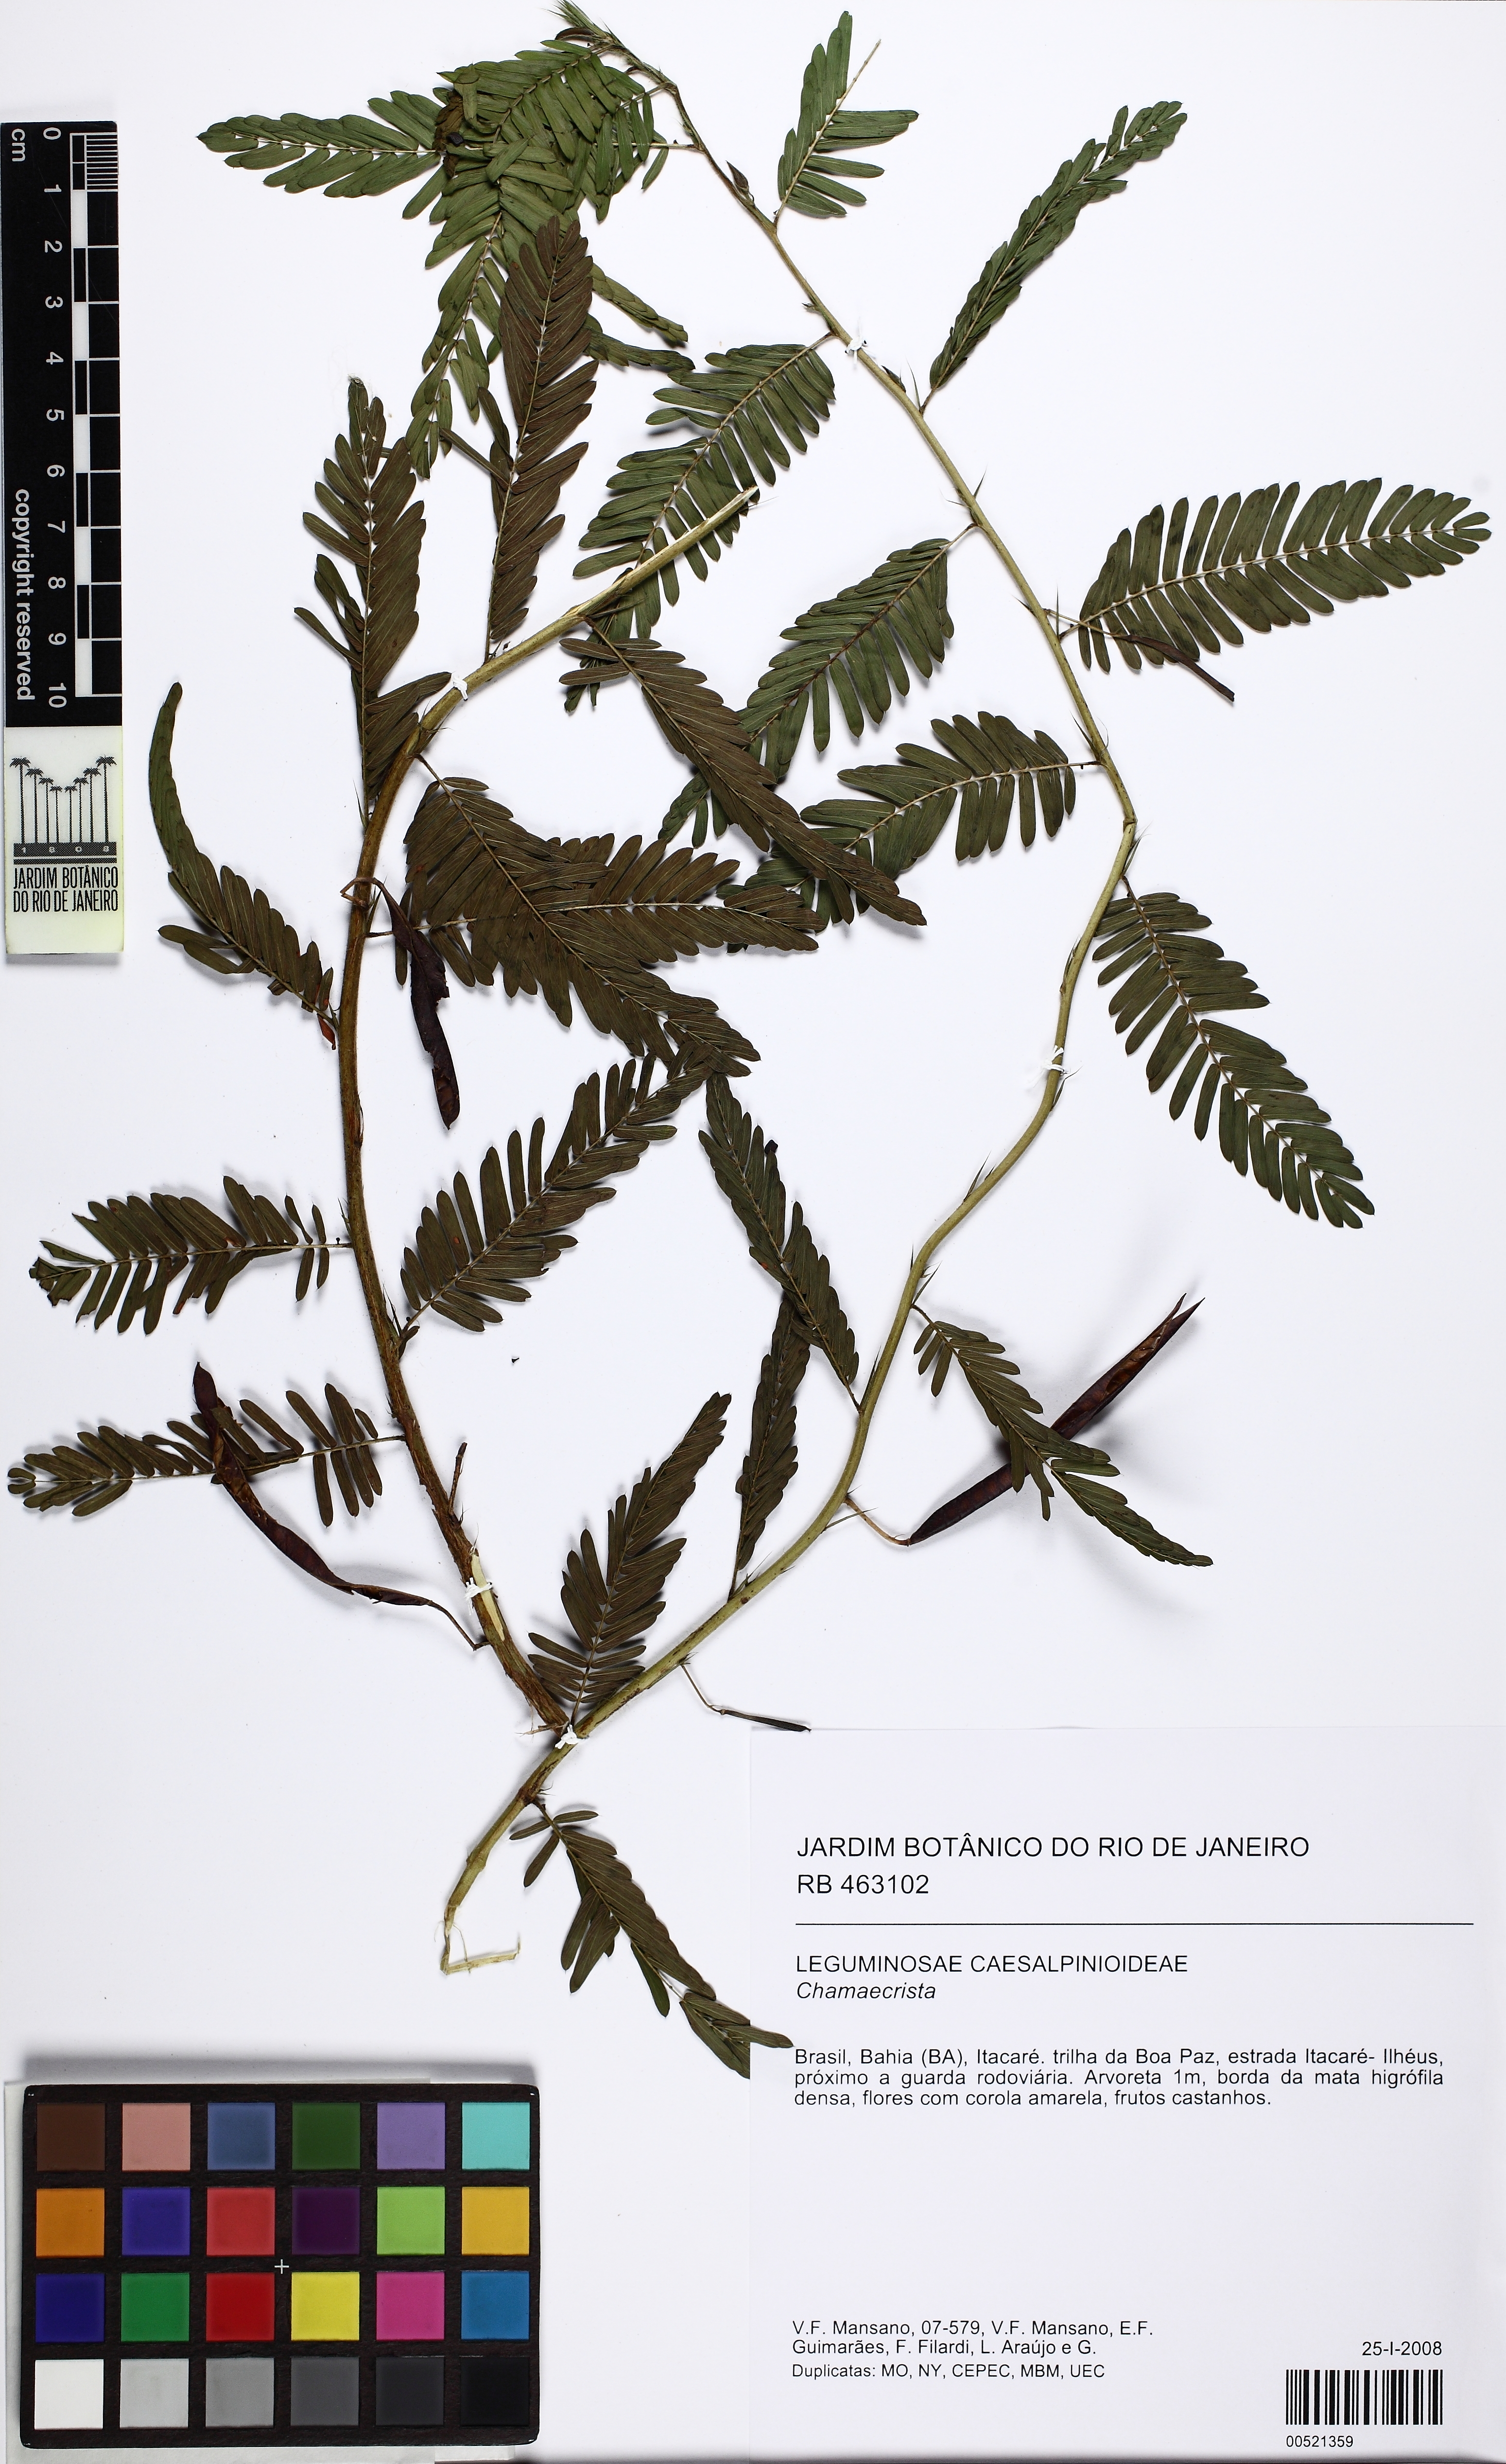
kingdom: Plantae
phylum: Tracheophyta
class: Magnoliopsida
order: Fabales
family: Fabaceae
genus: Chamaecrista
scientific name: Chamaecrista
